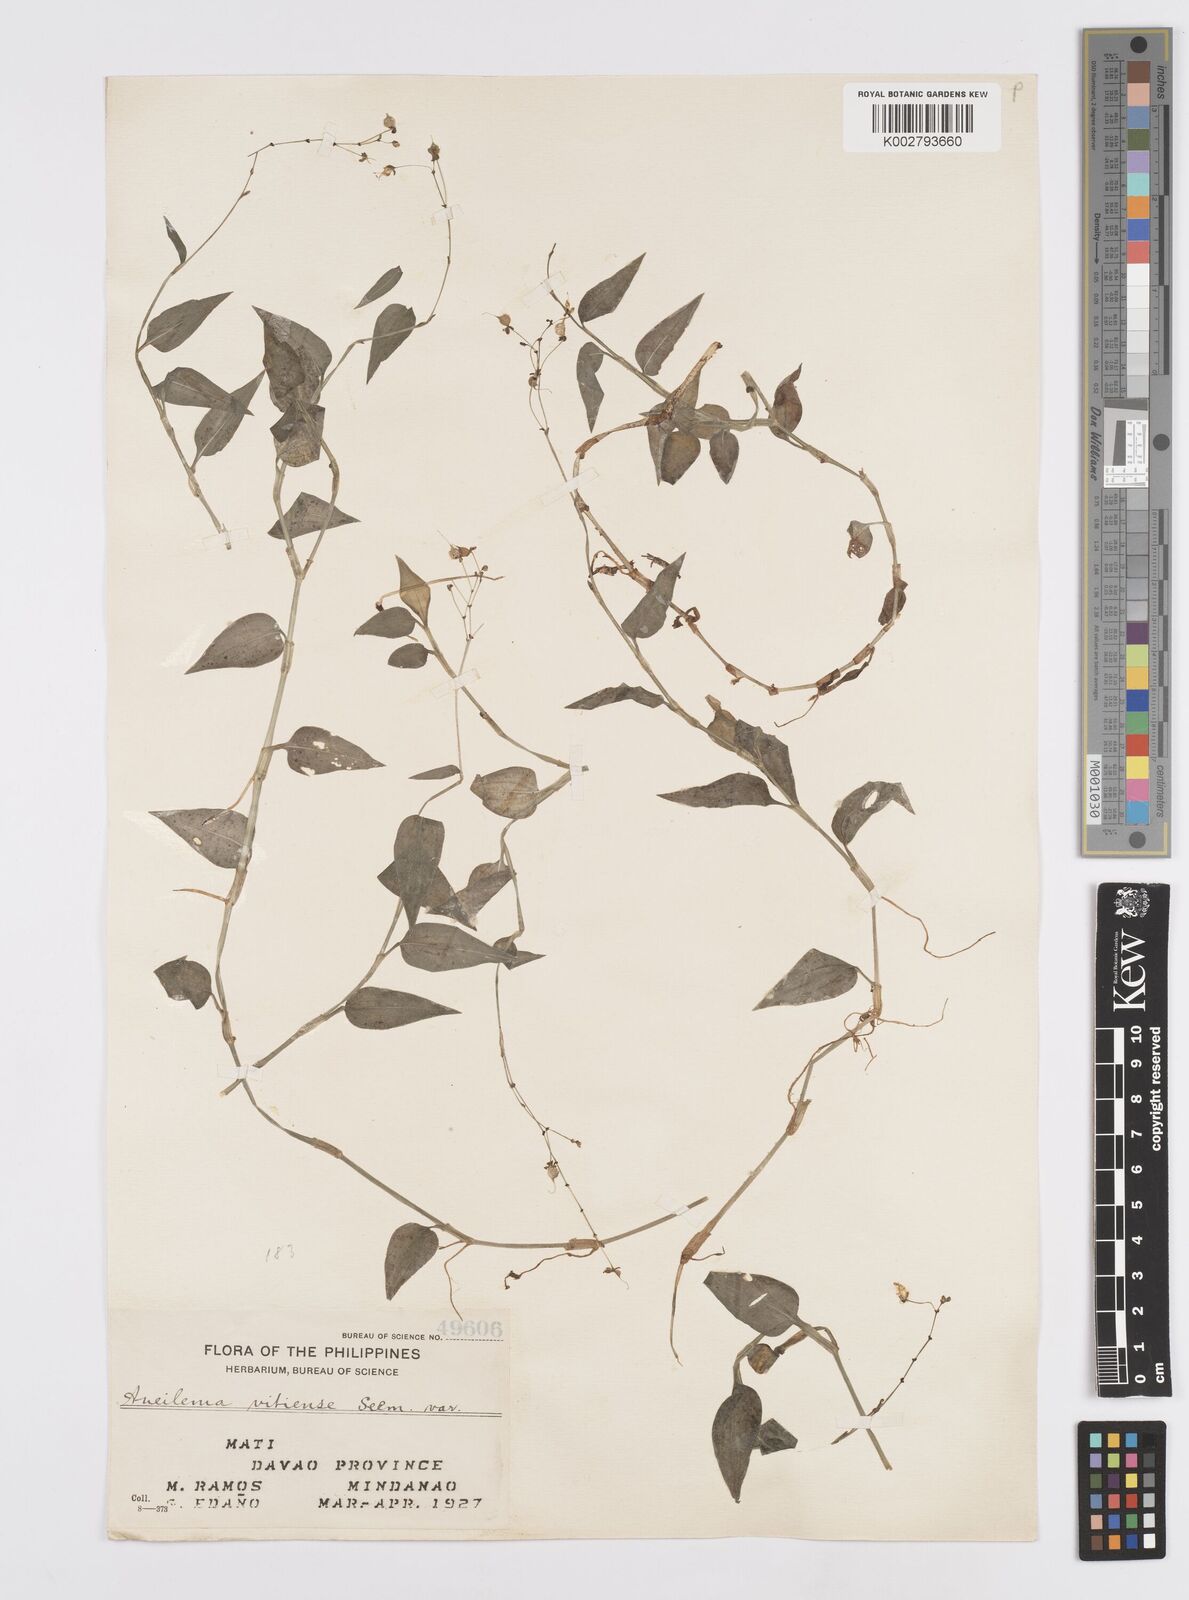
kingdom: Plantae
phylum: Tracheophyta
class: Liliopsida
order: Commelinales
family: Commelinaceae
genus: Murdannia
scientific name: Murdannia
